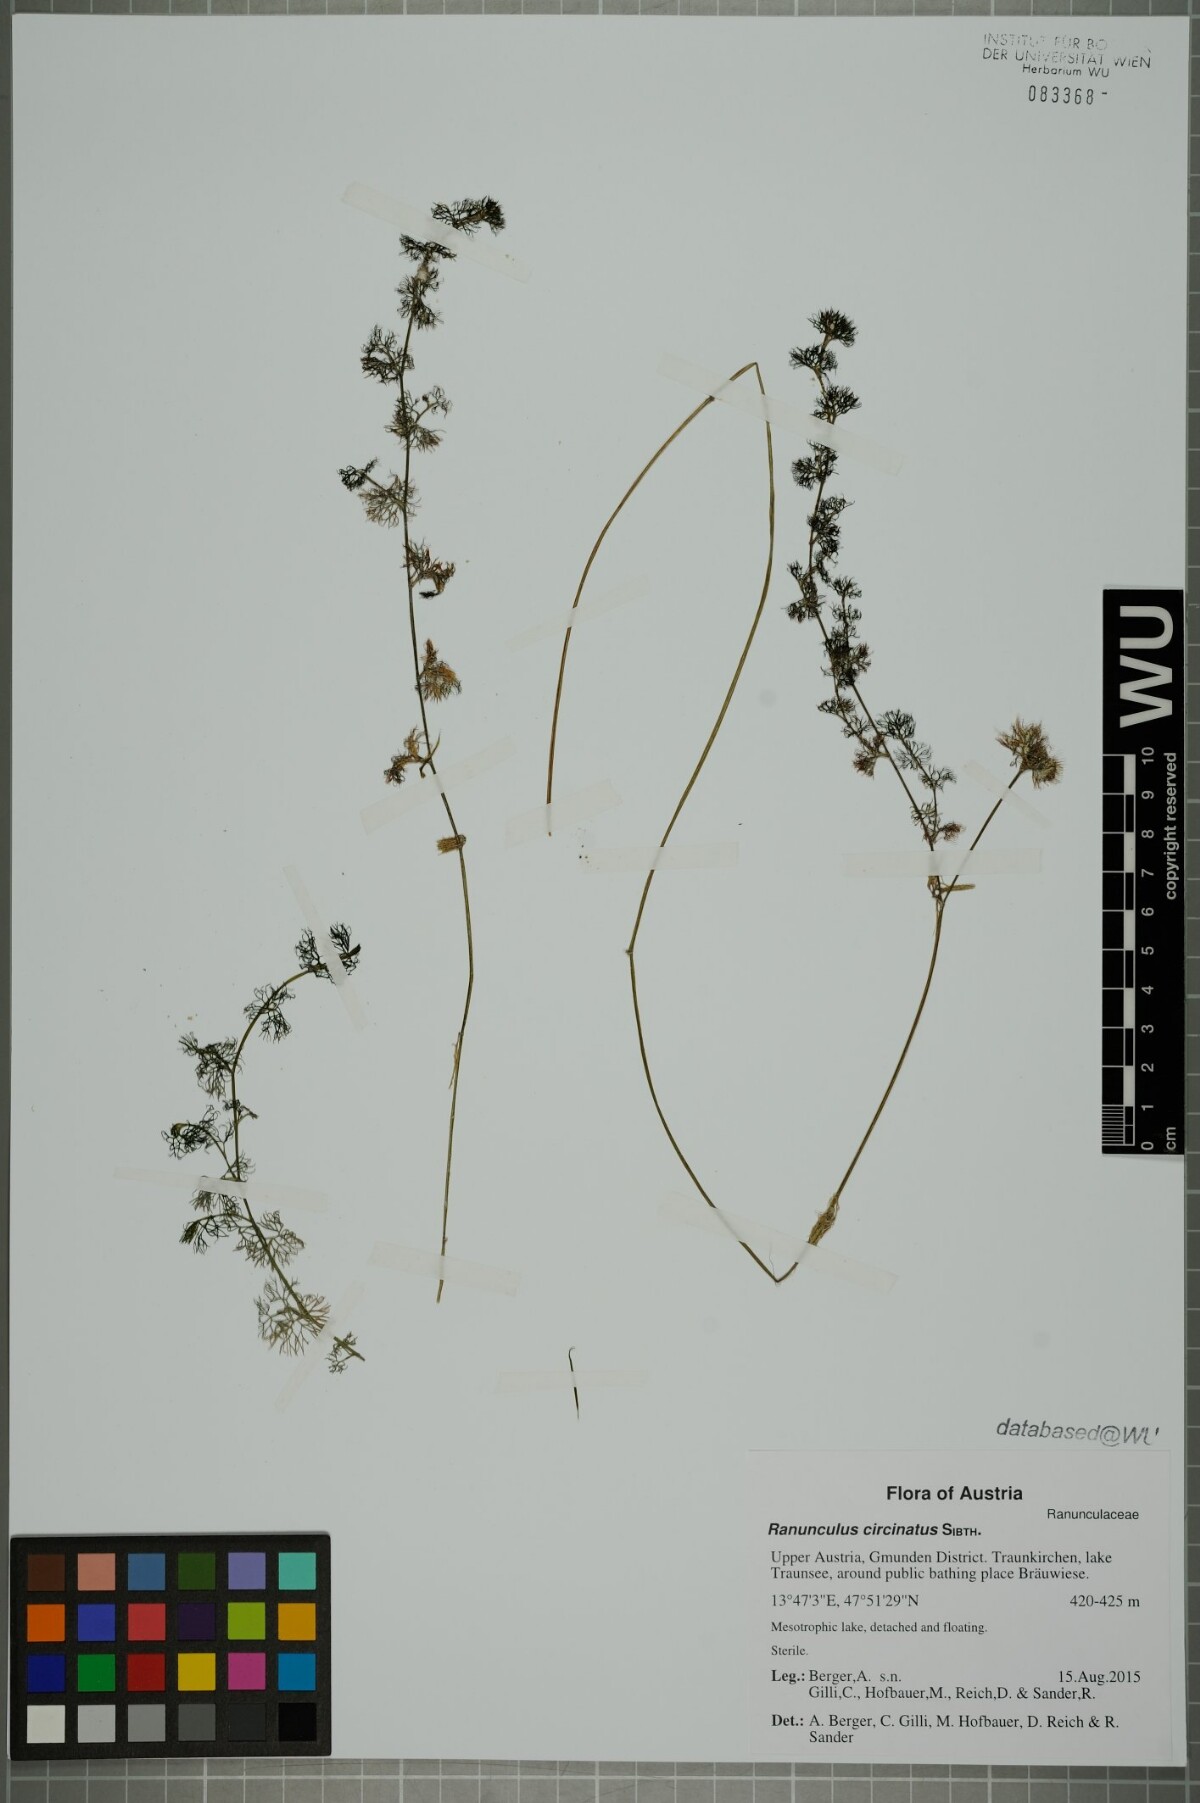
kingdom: Plantae
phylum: Tracheophyta
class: Magnoliopsida
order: Ranunculales
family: Ranunculaceae
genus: Ranunculus
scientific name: Ranunculus circinatus
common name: Fan-leaved water-crowfoot
